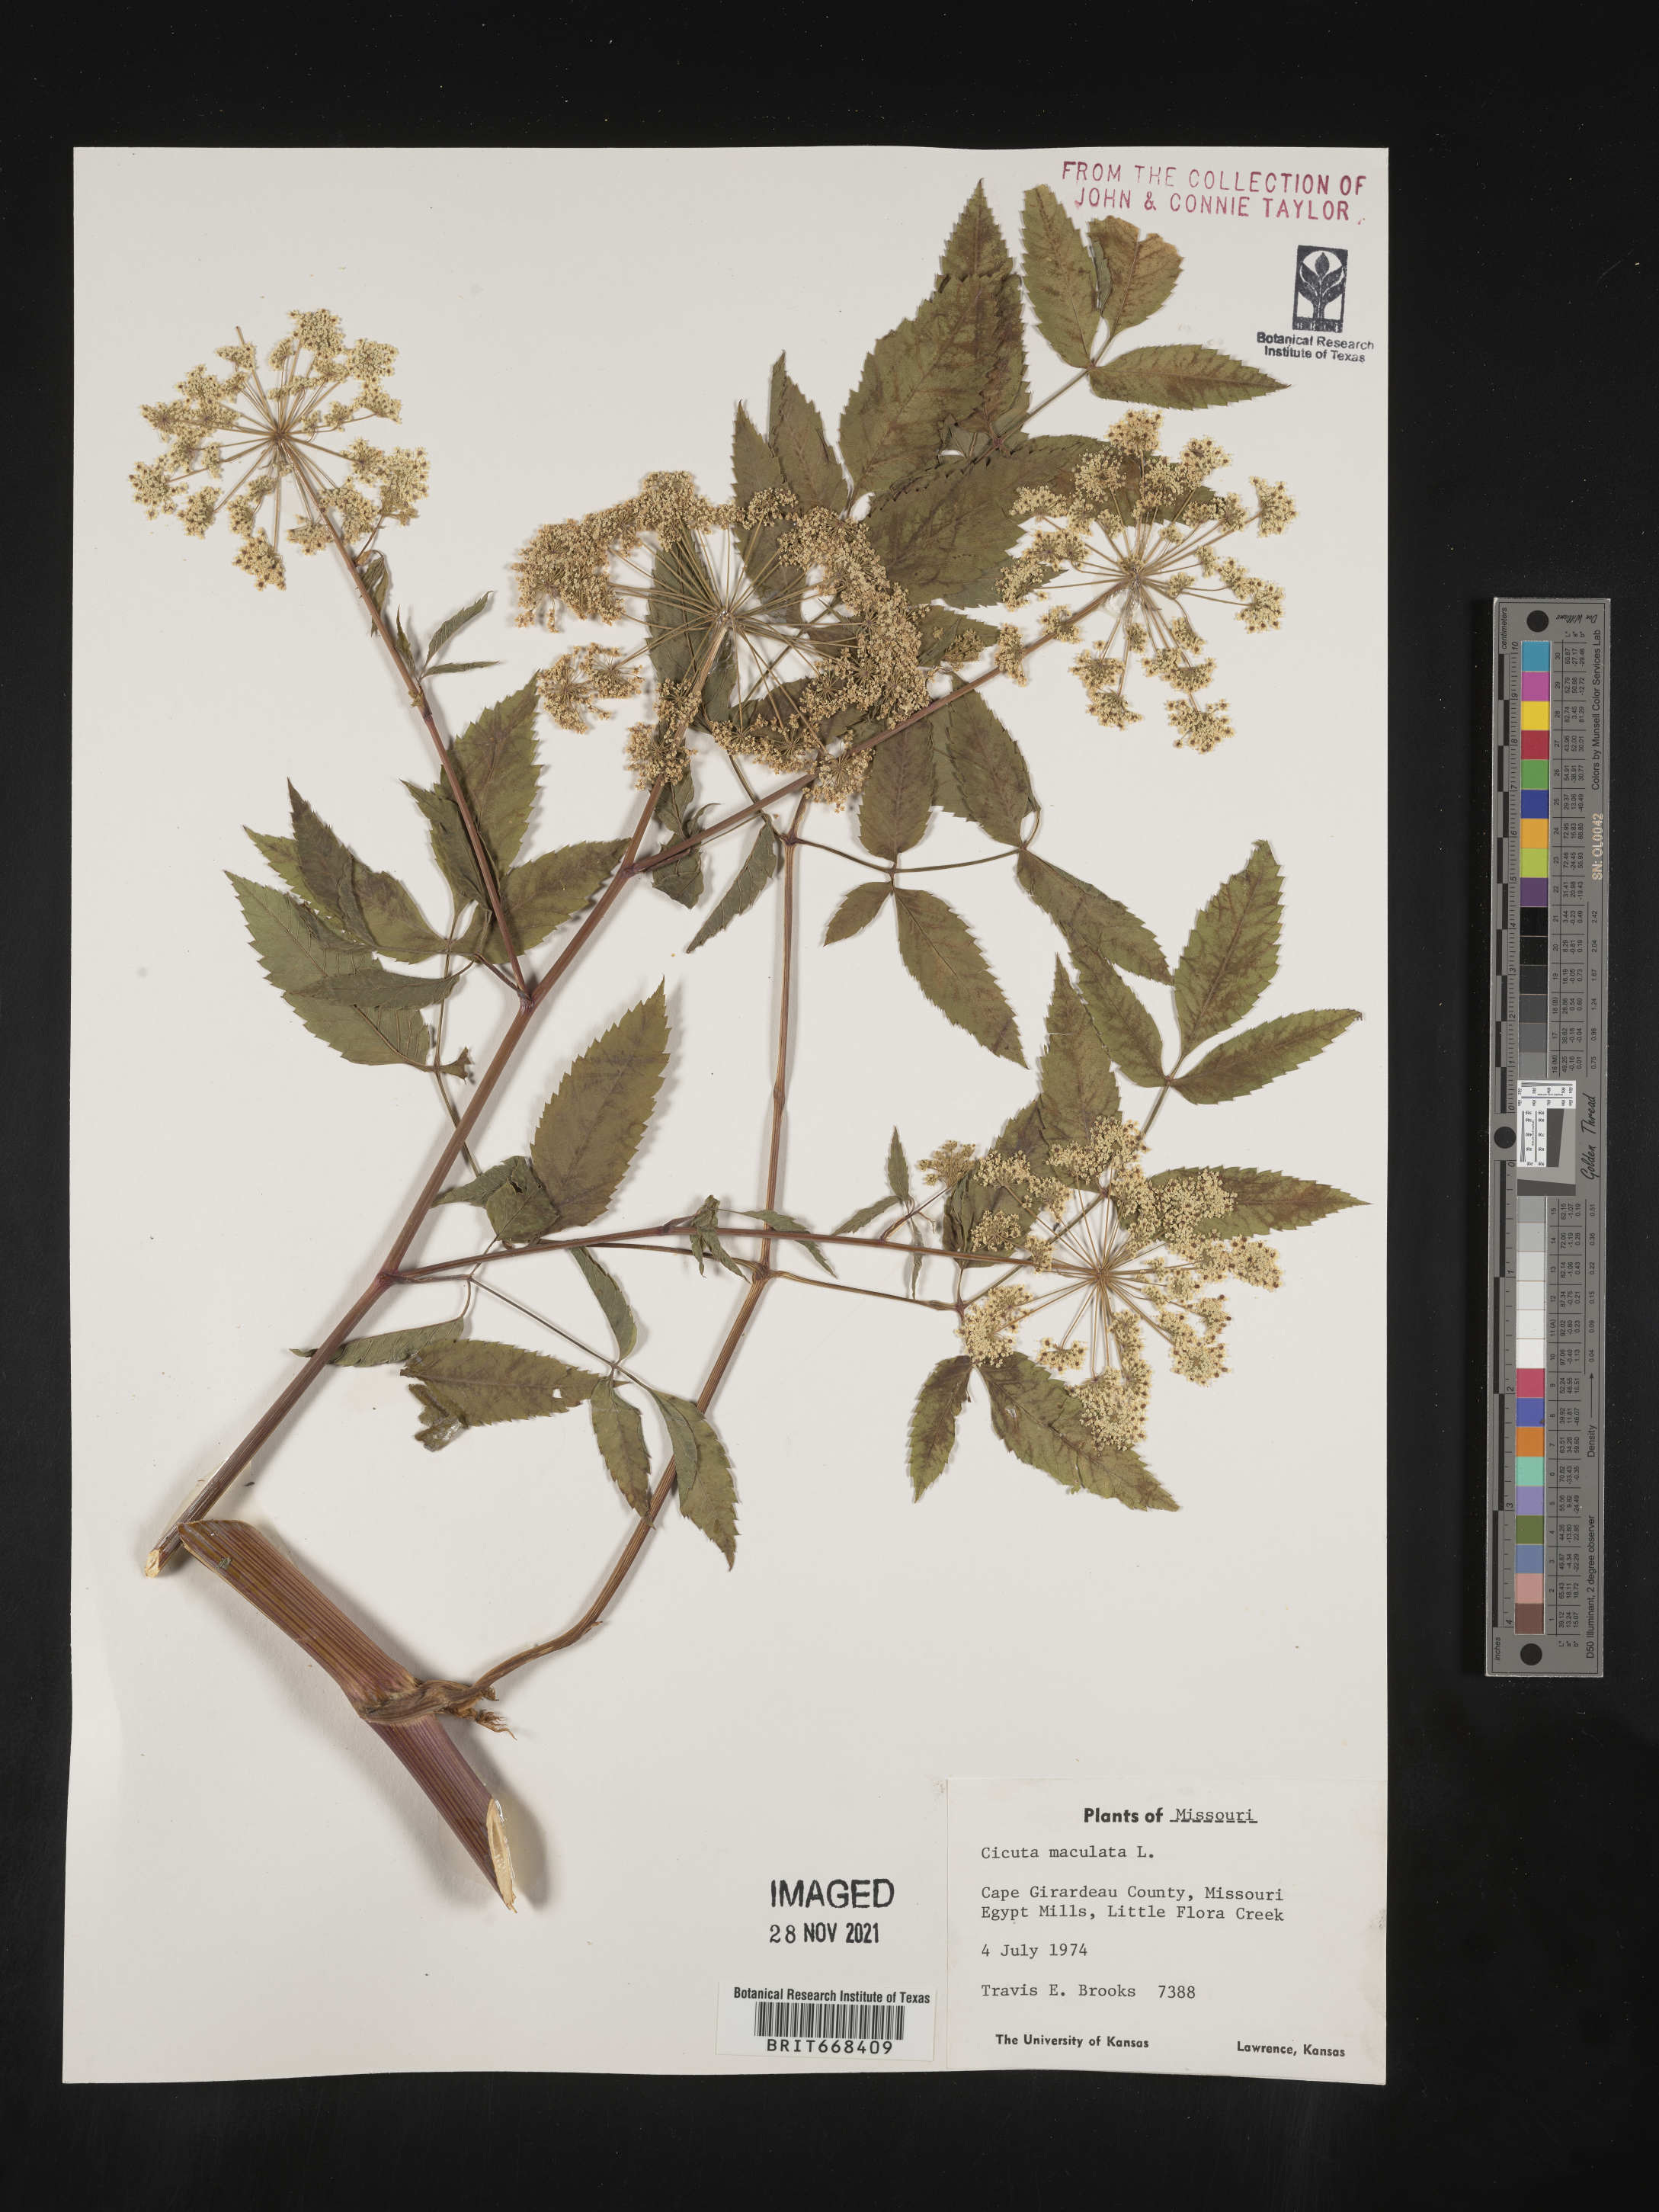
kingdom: Plantae
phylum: Tracheophyta
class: Magnoliopsida
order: Apiales
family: Apiaceae
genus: Cicuta
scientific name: Cicuta maculata
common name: Spotted cowbane
